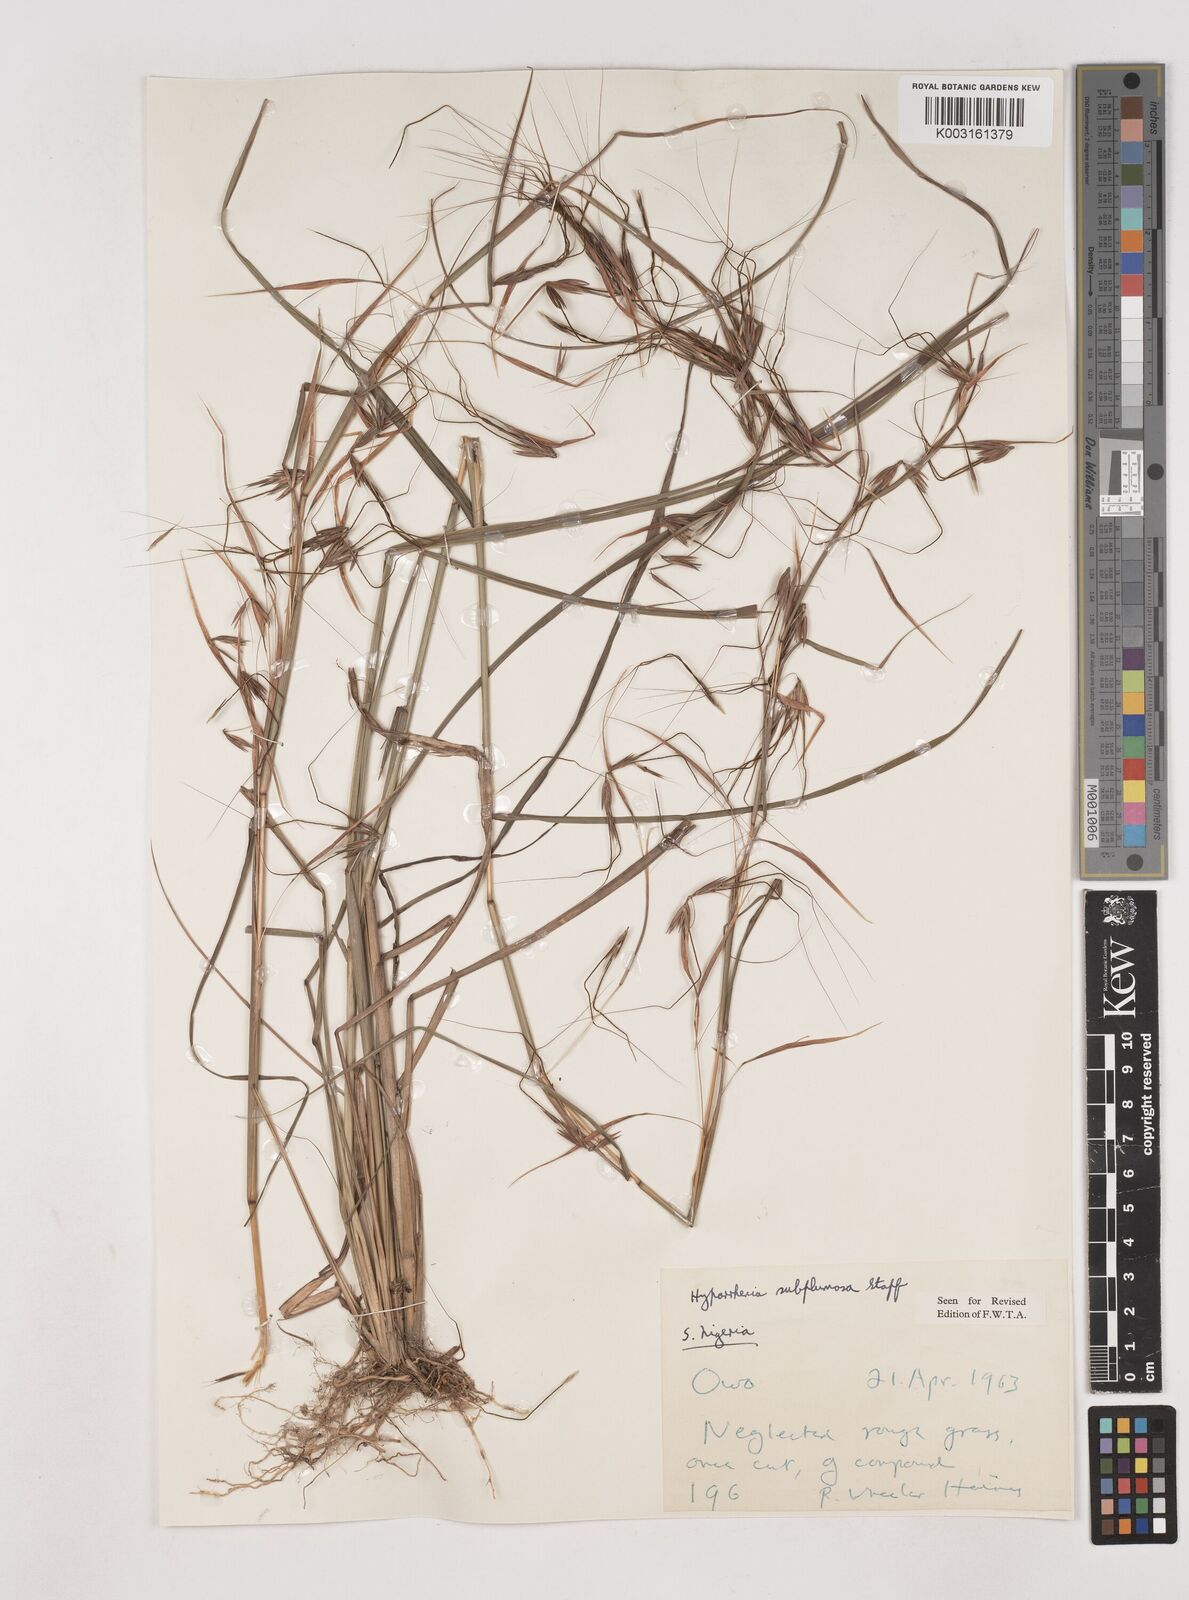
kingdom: Plantae
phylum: Tracheophyta
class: Liliopsida
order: Poales
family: Poaceae
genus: Hyparrhenia
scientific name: Hyparrhenia subplumosa
